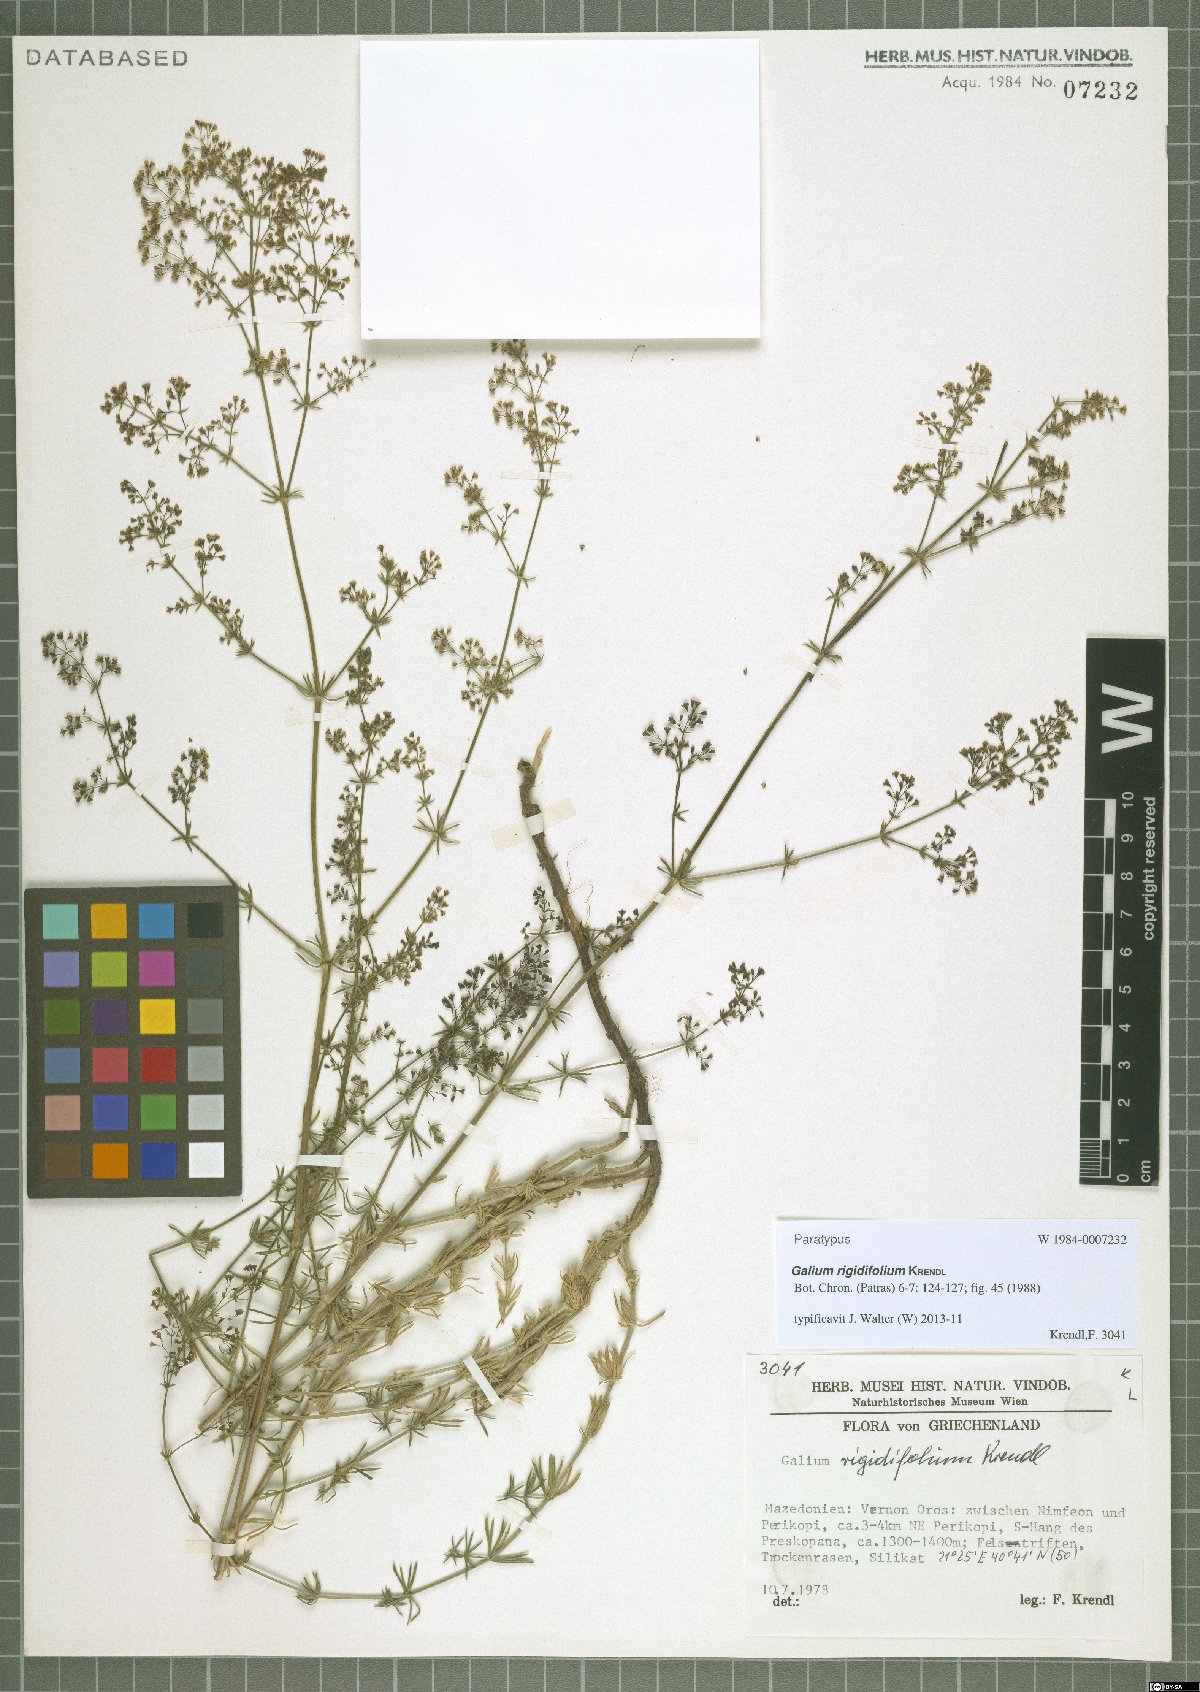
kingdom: Plantae
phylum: Tracheophyta
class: Magnoliopsida
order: Gentianales
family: Rubiaceae
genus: Galium
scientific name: Galium rigidifolium
